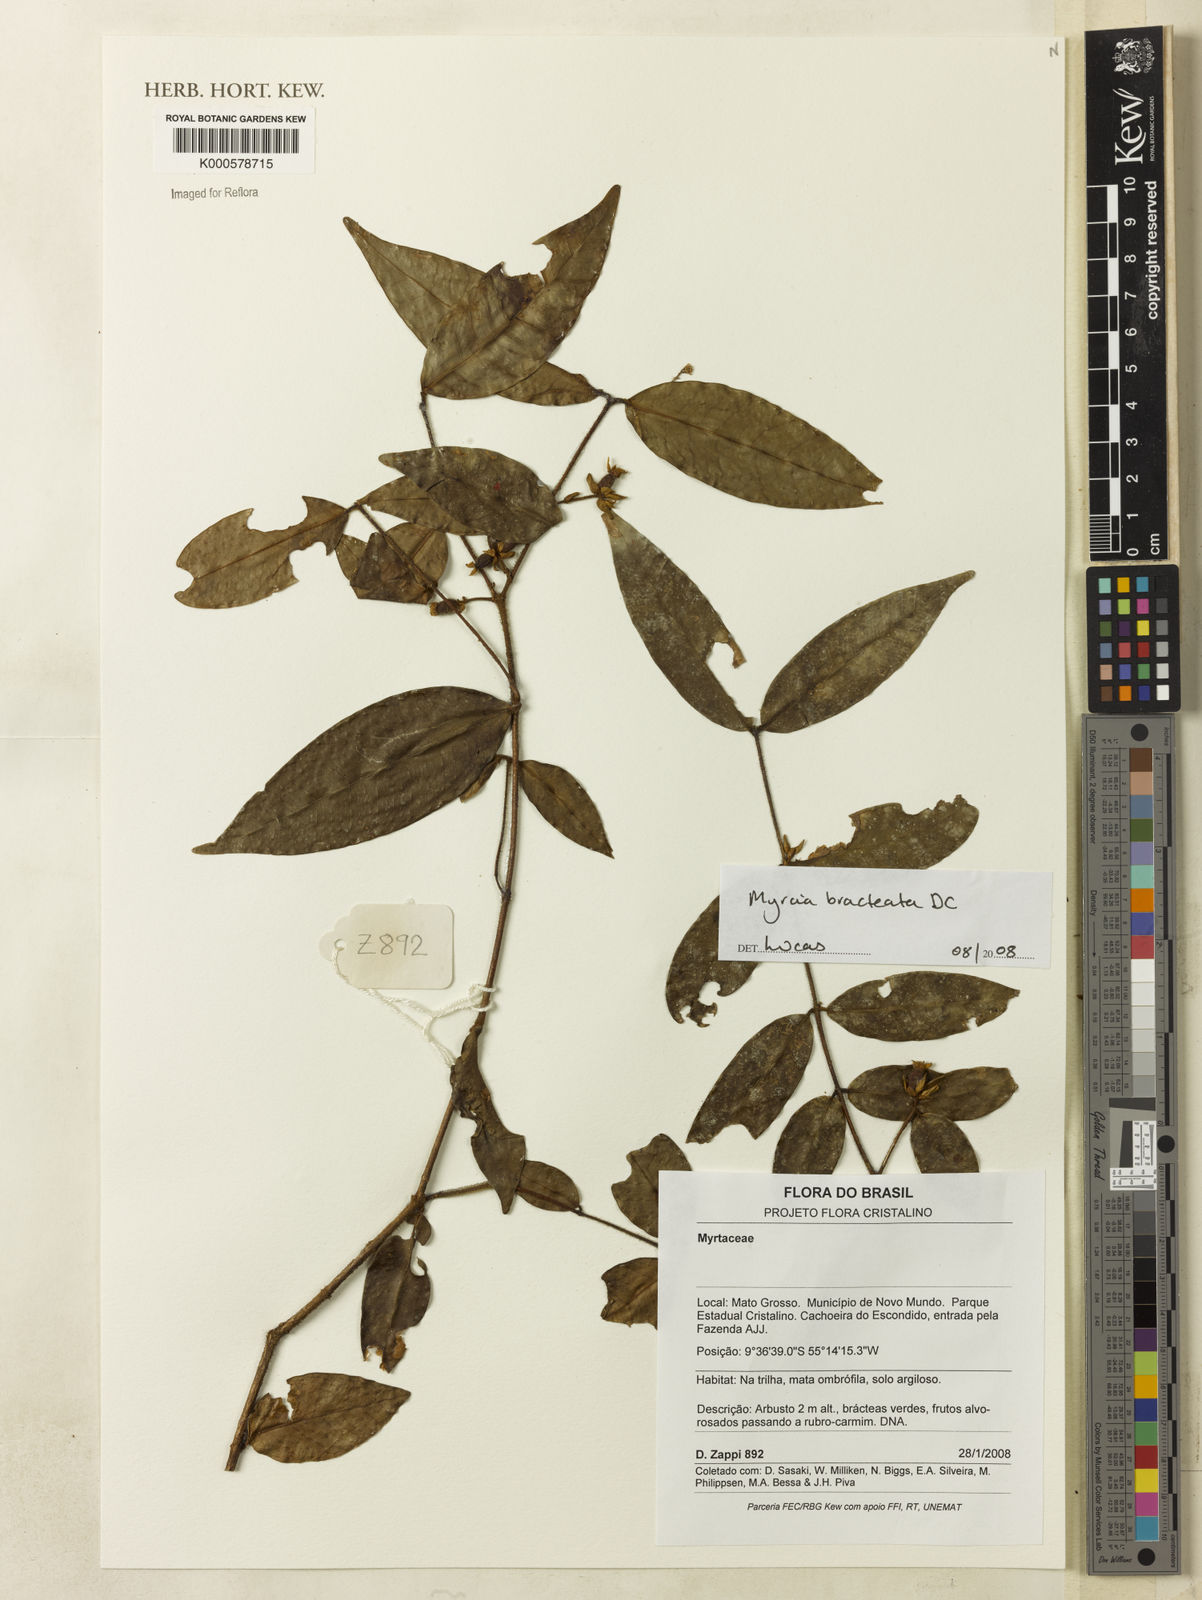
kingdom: Plantae
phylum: Tracheophyta
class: Magnoliopsida
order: Myrtales
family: Myrtaceae
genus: Myrcia
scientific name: Myrcia bracteata
